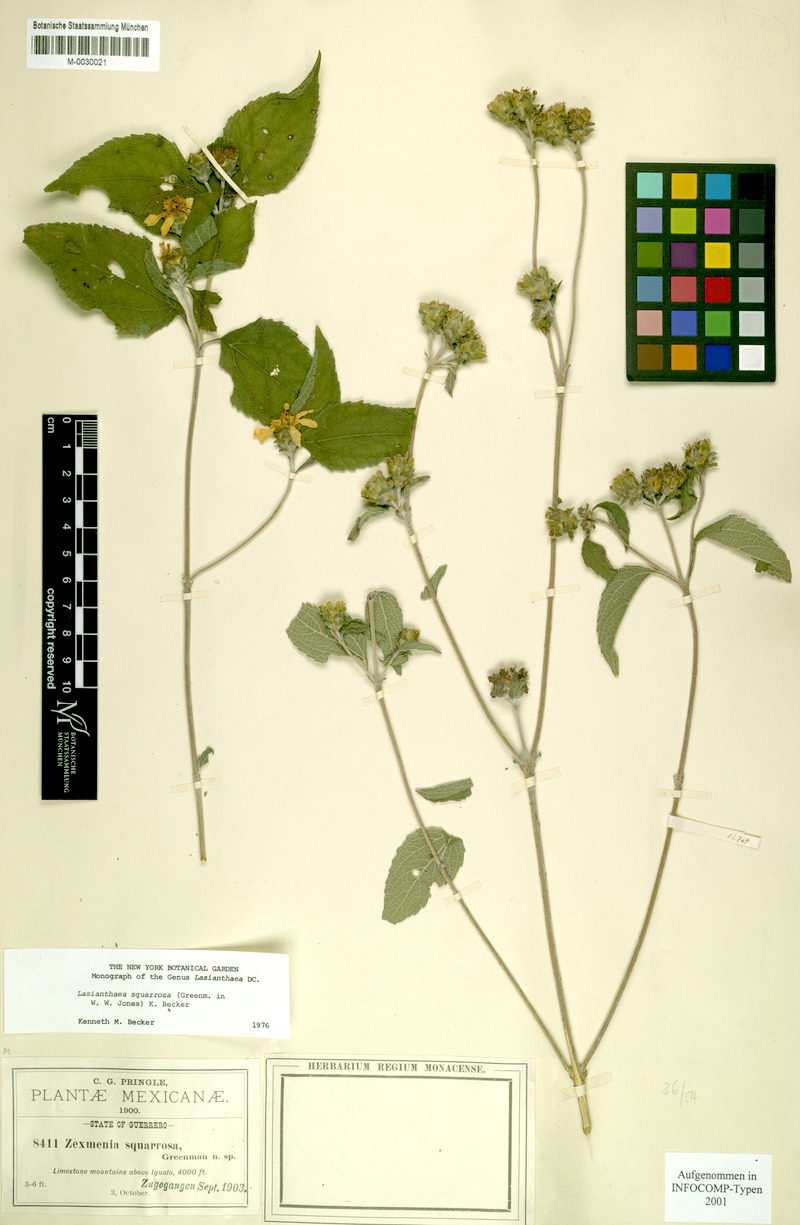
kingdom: Plantae
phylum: Tracheophyta
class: Magnoliopsida
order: Asterales
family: Asteraceae
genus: Lasianthaea
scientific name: Lasianthaea squarrosa
